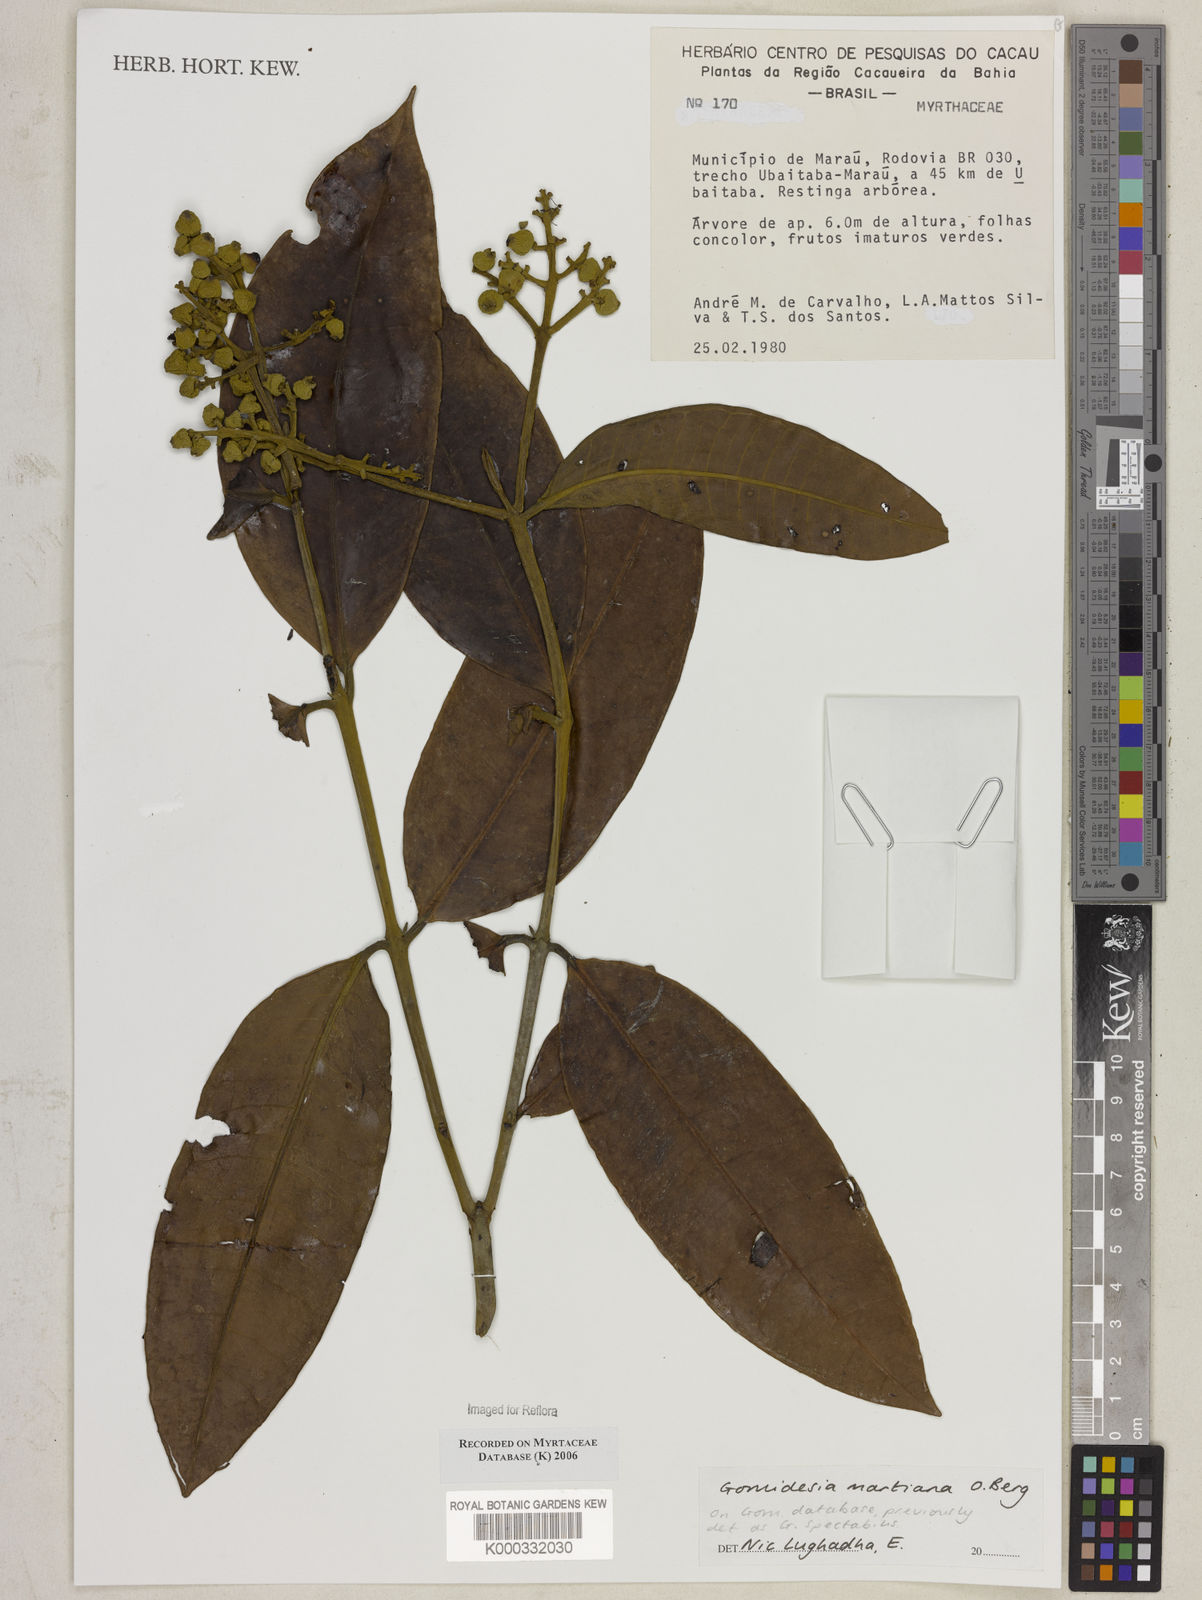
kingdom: Plantae
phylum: Tracheophyta
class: Magnoliopsida
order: Myrtales
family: Myrtaceae
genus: Myrcia
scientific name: Myrcia vittoriana
